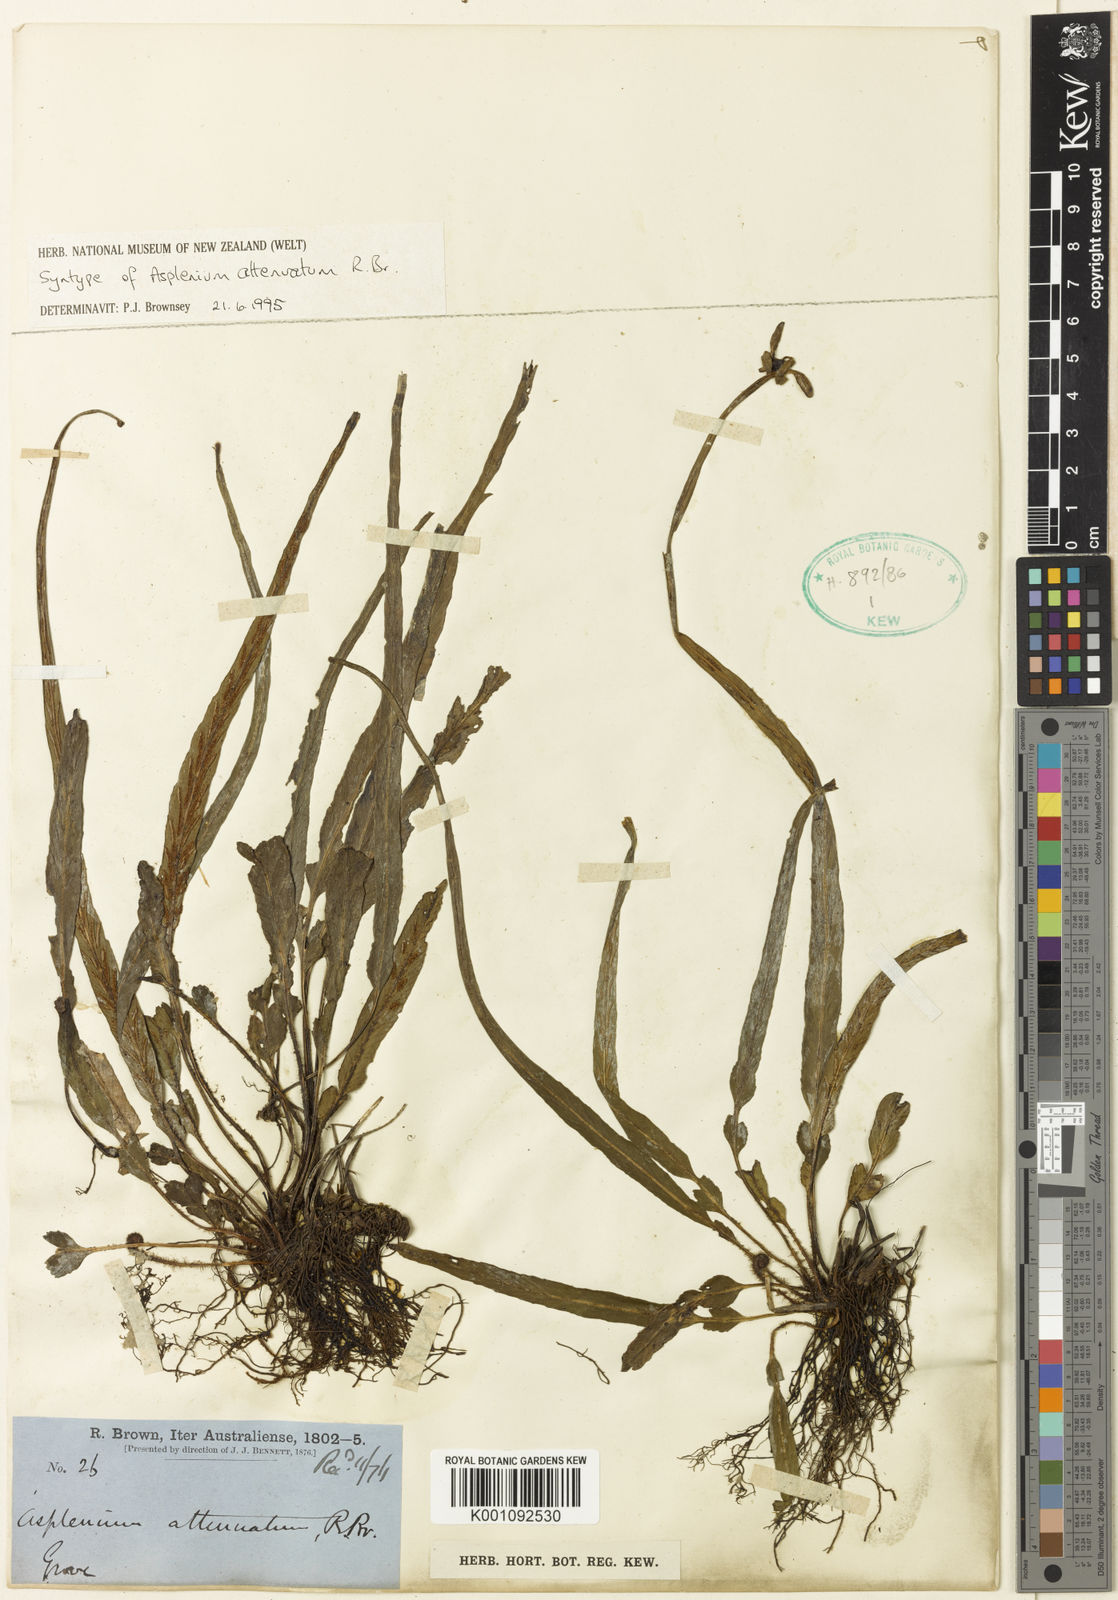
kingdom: Plantae
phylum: Tracheophyta
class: Polypodiopsida
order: Polypodiales
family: Aspleniaceae
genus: Asplenium
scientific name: Asplenium attenuatum
